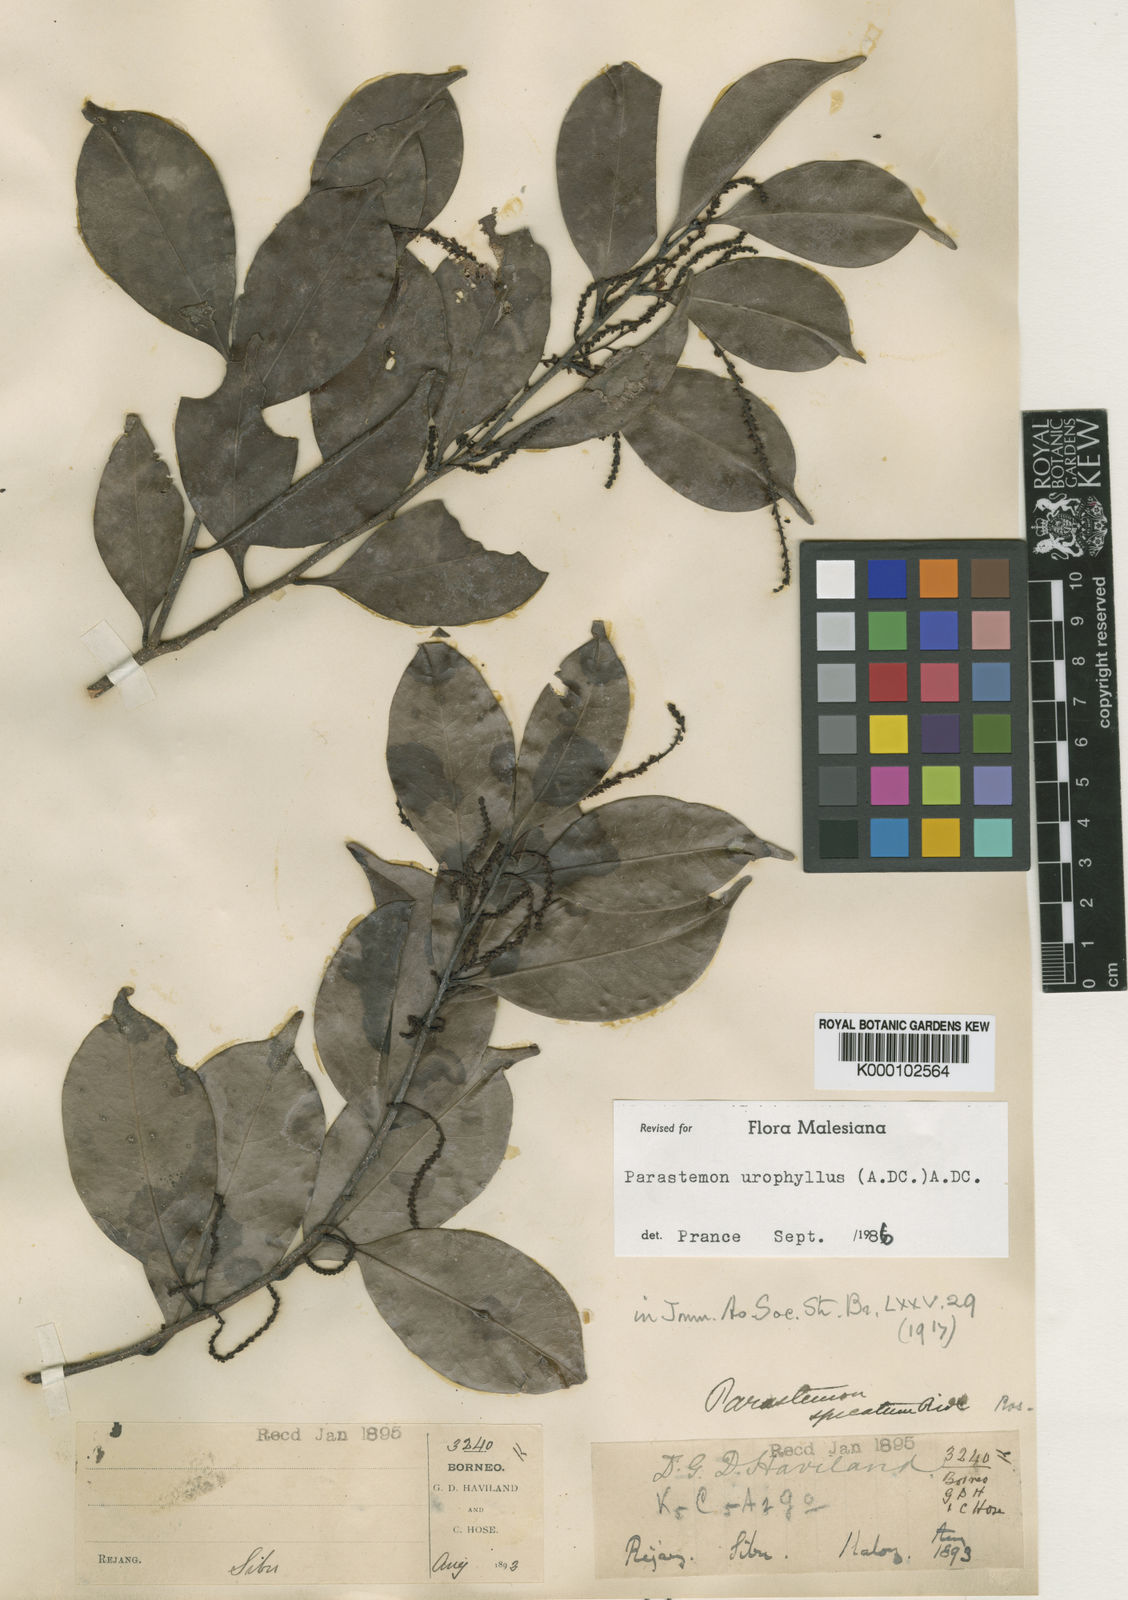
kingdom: Plantae
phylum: Tracheophyta
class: Magnoliopsida
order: Malpighiales
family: Chrysobalanaceae
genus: Parastemon
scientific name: Parastemon
